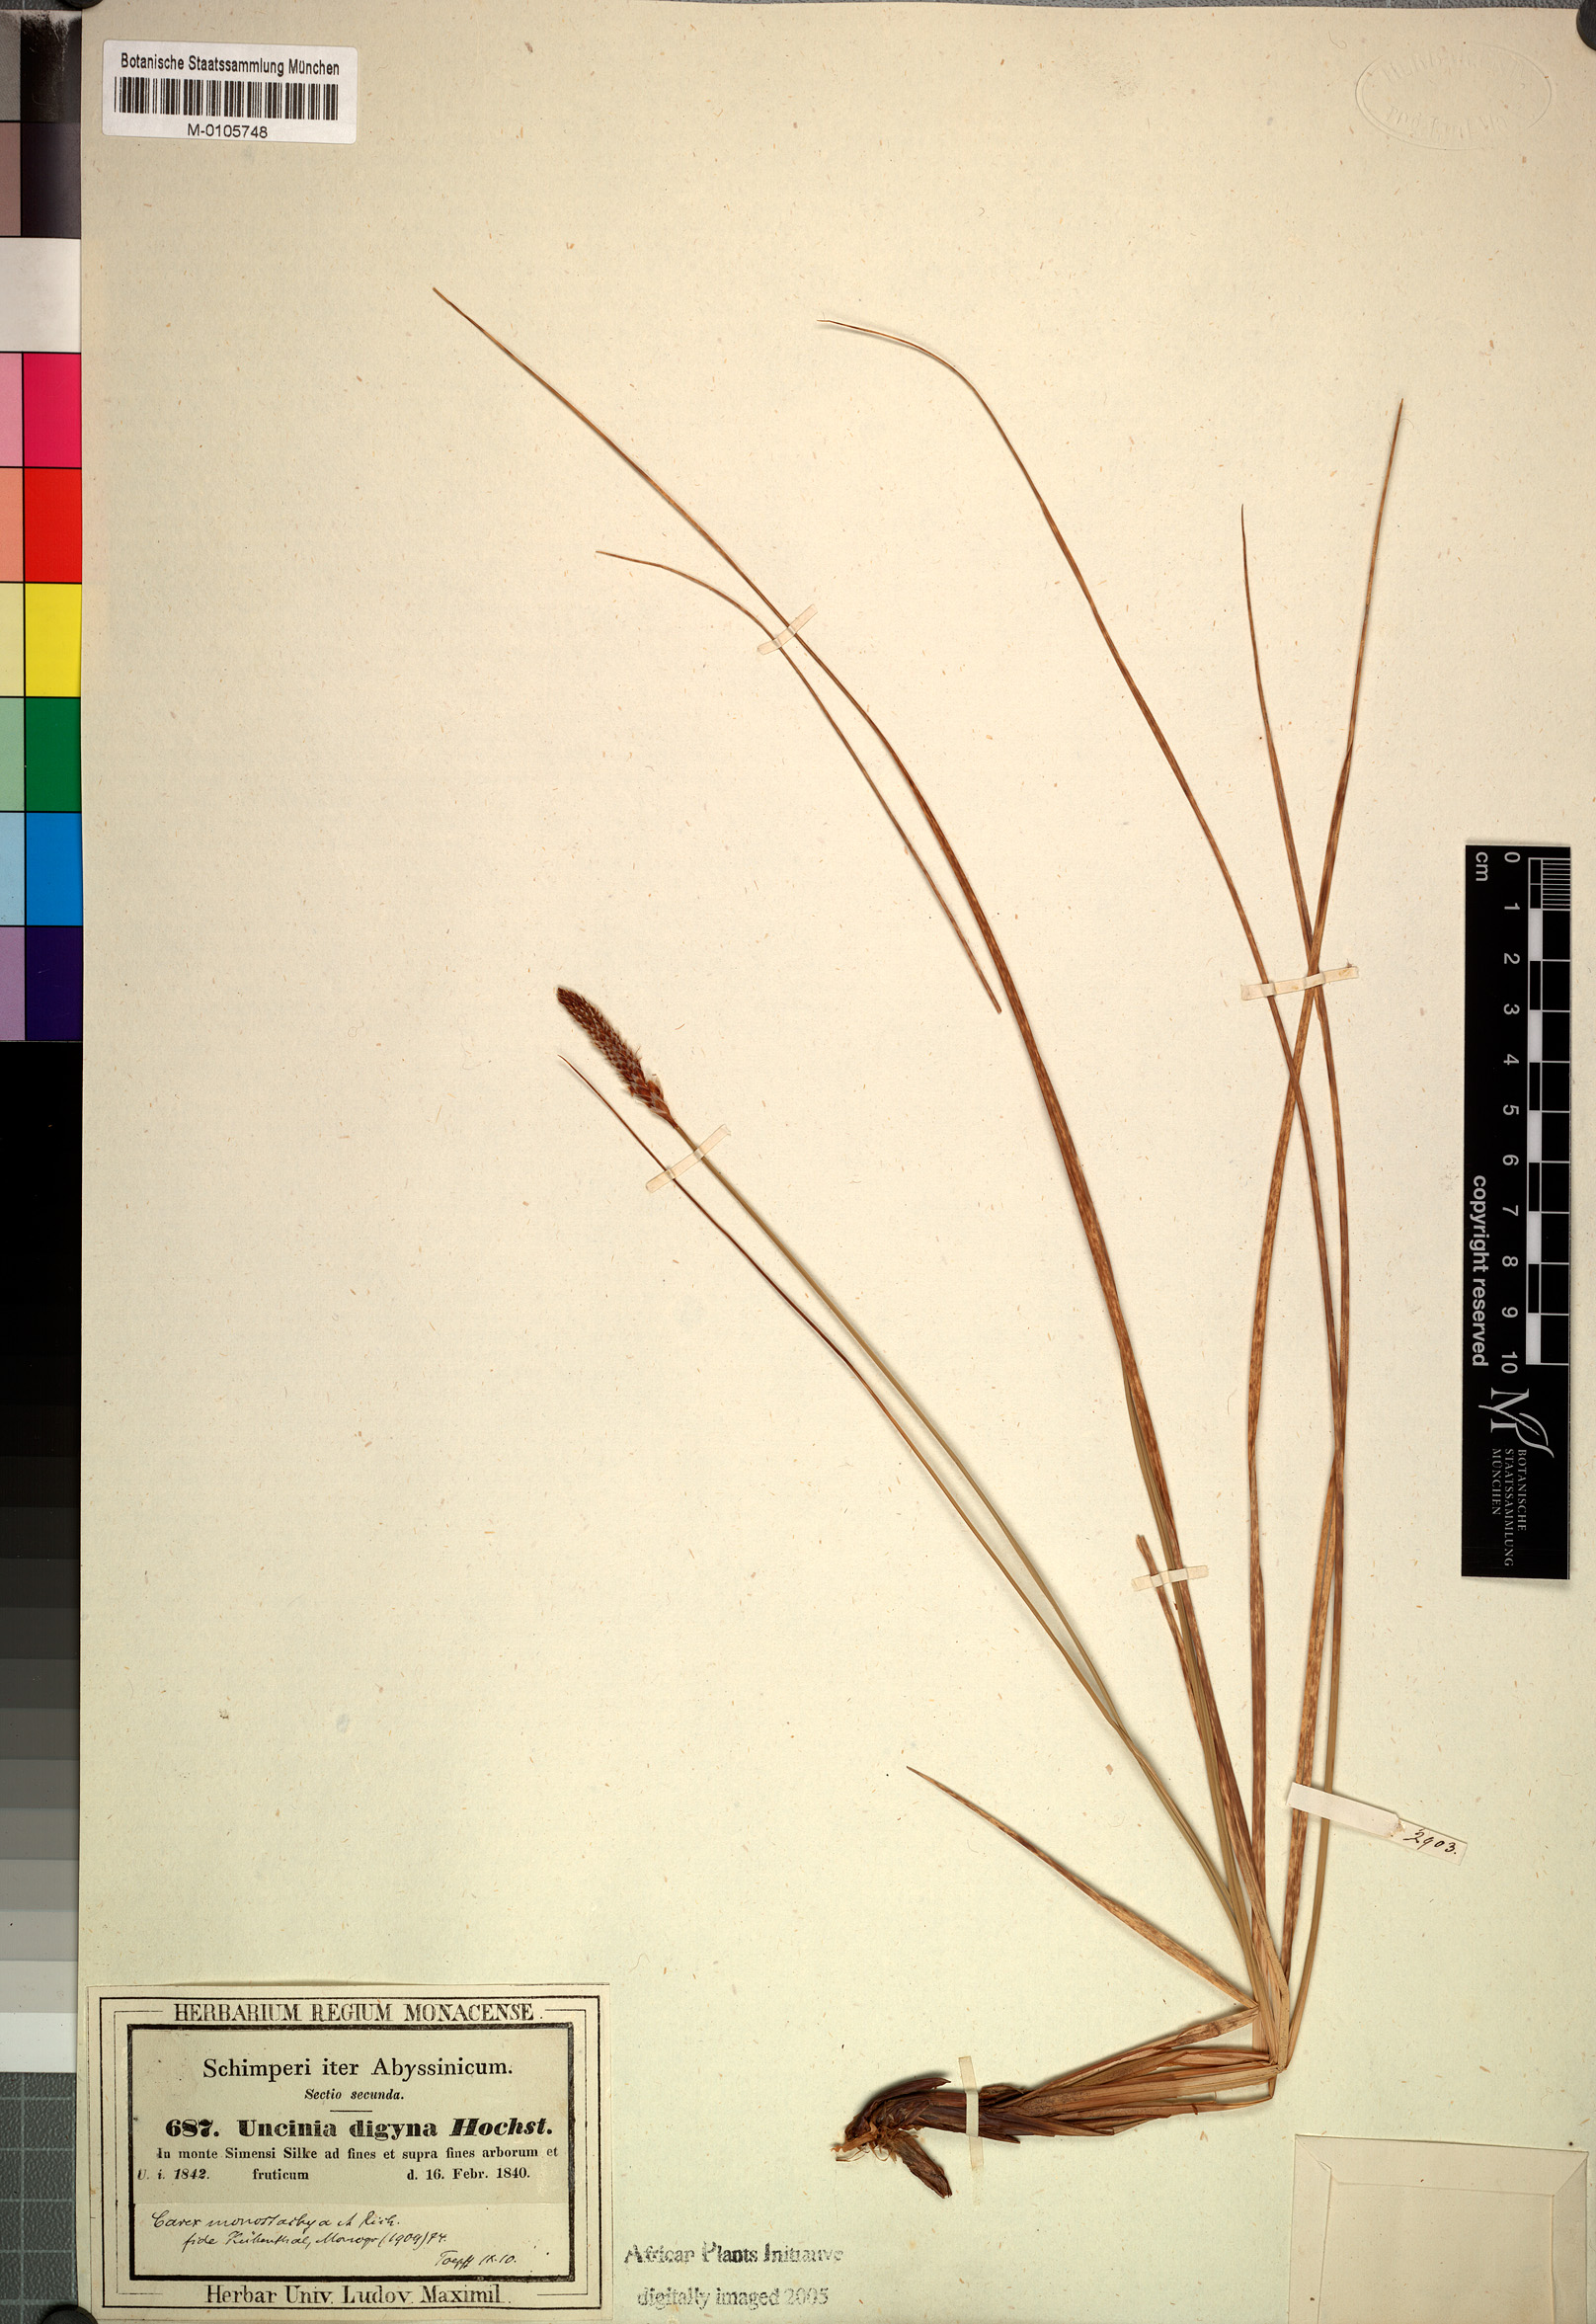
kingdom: Plantae
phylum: Tracheophyta
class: Liliopsida
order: Poales
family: Cyperaceae
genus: Carex
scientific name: Carex monostachya
